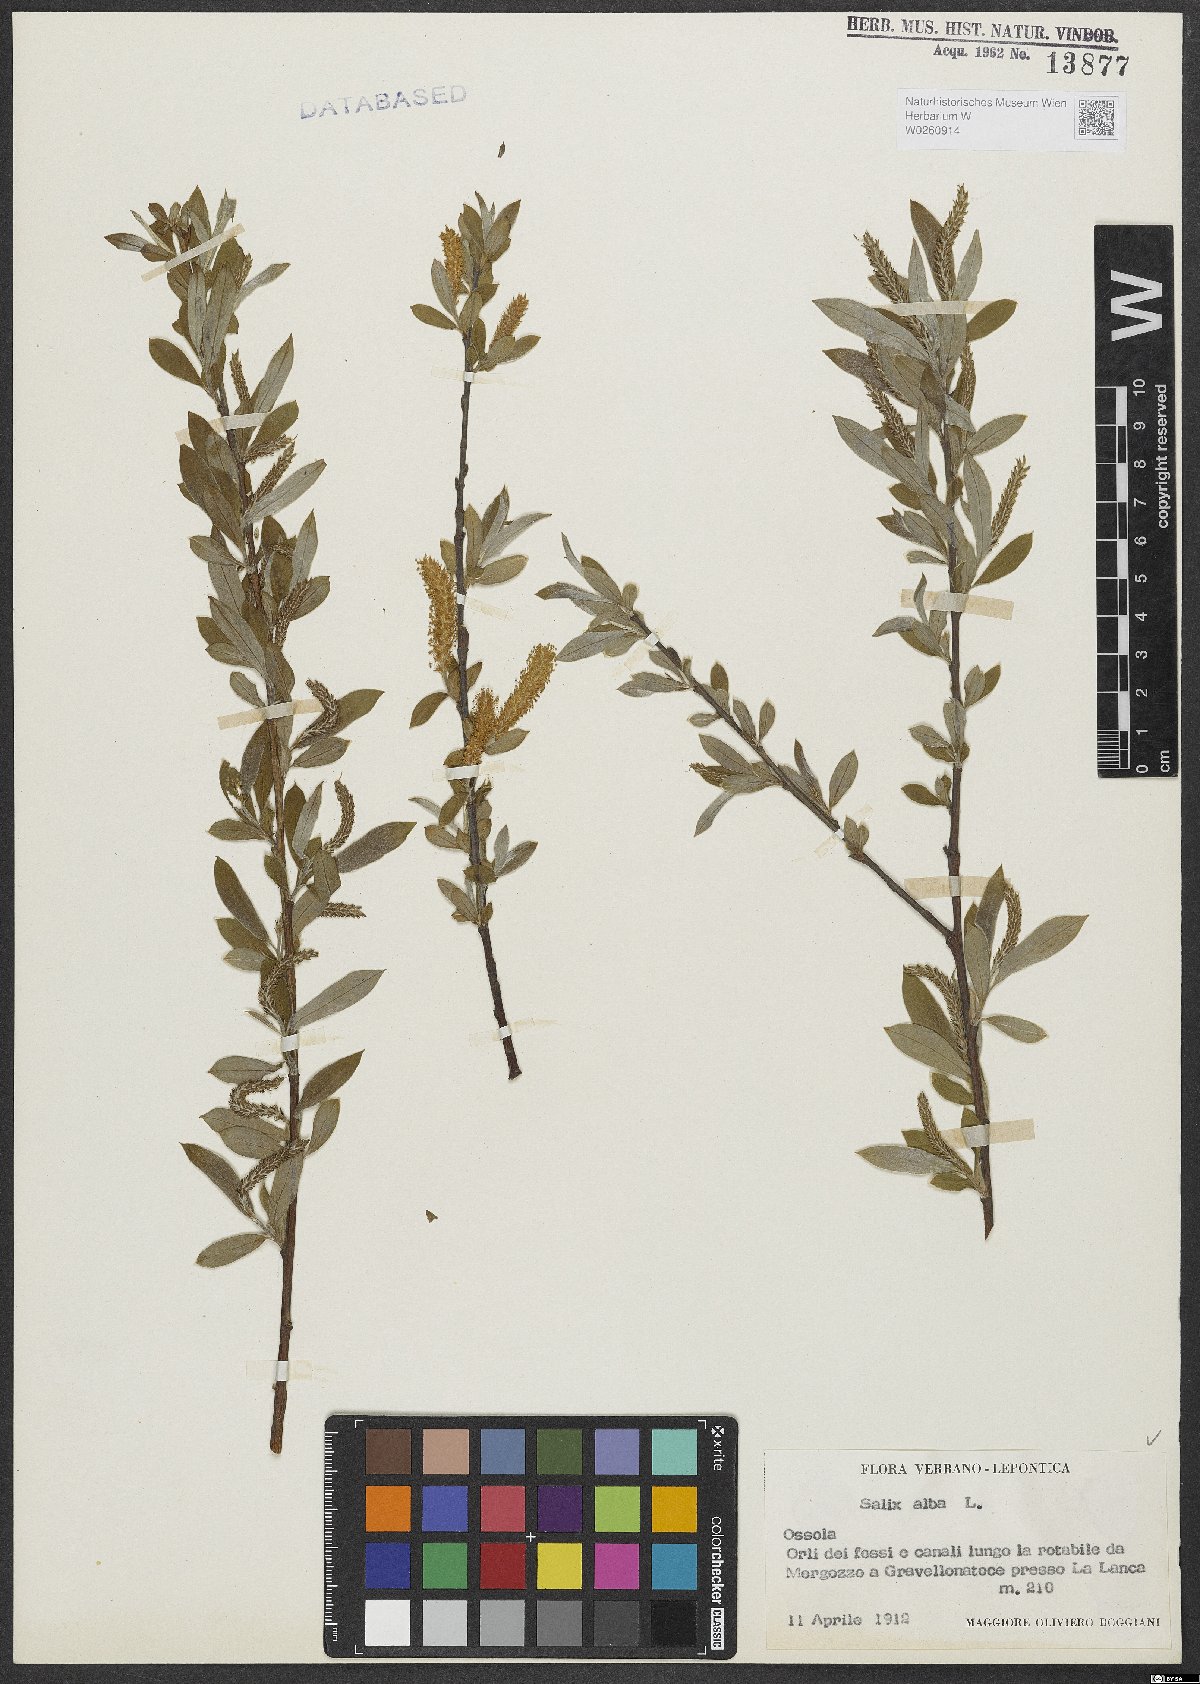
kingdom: Plantae
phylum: Tracheophyta
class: Magnoliopsida
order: Malpighiales
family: Salicaceae
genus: Salix
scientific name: Salix alba
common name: White willow
